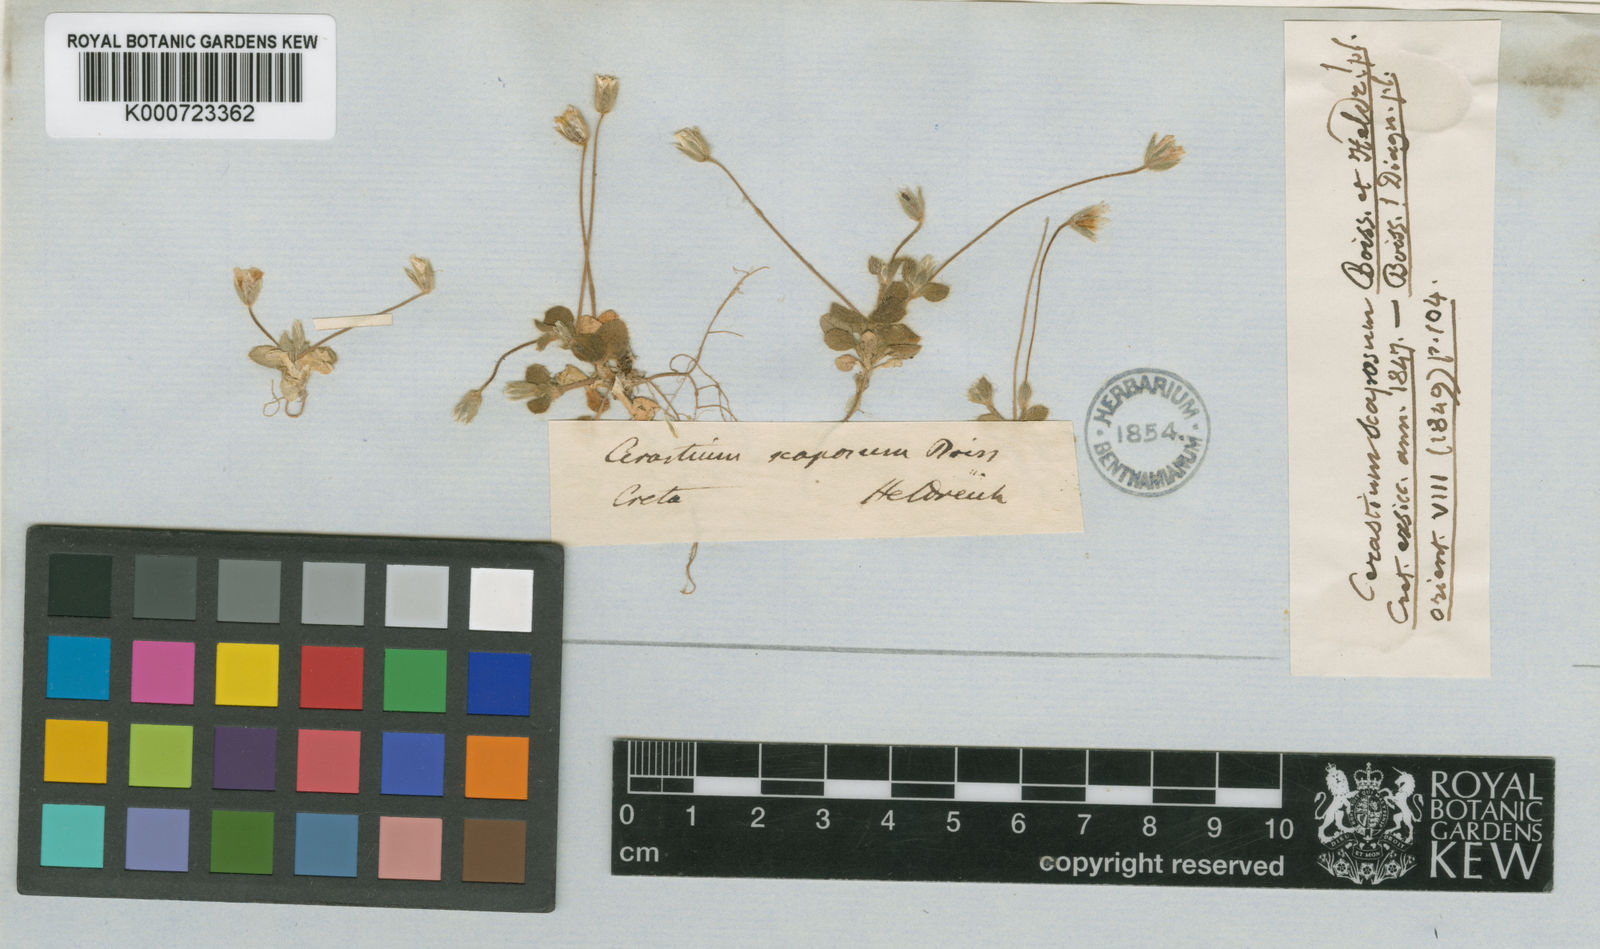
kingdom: Plantae
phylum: Tracheophyta
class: Magnoliopsida
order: Caryophyllales
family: Caryophyllaceae
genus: Cerastium
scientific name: Cerastium scaposum
